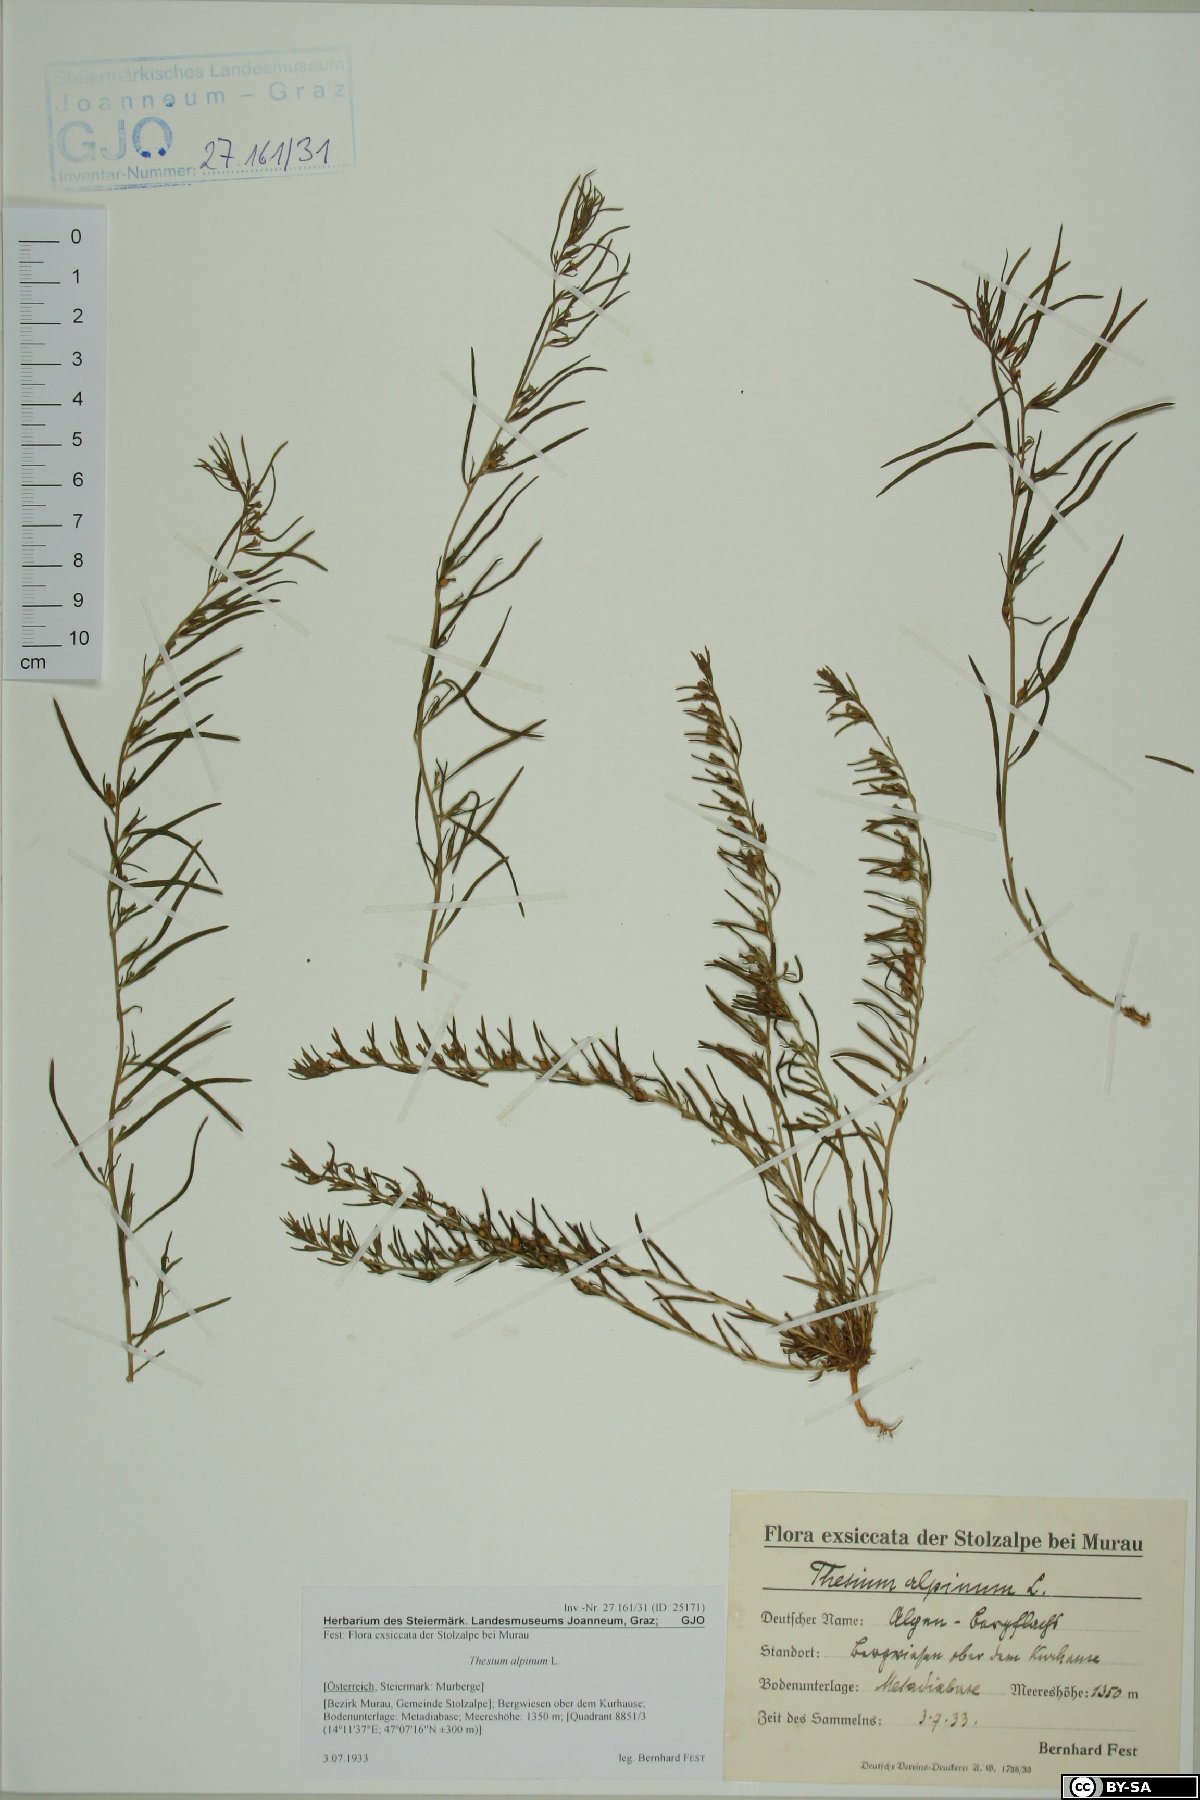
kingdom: Plantae
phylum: Tracheophyta
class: Magnoliopsida
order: Santalales
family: Thesiaceae
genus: Thesium
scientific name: Thesium alpinum
